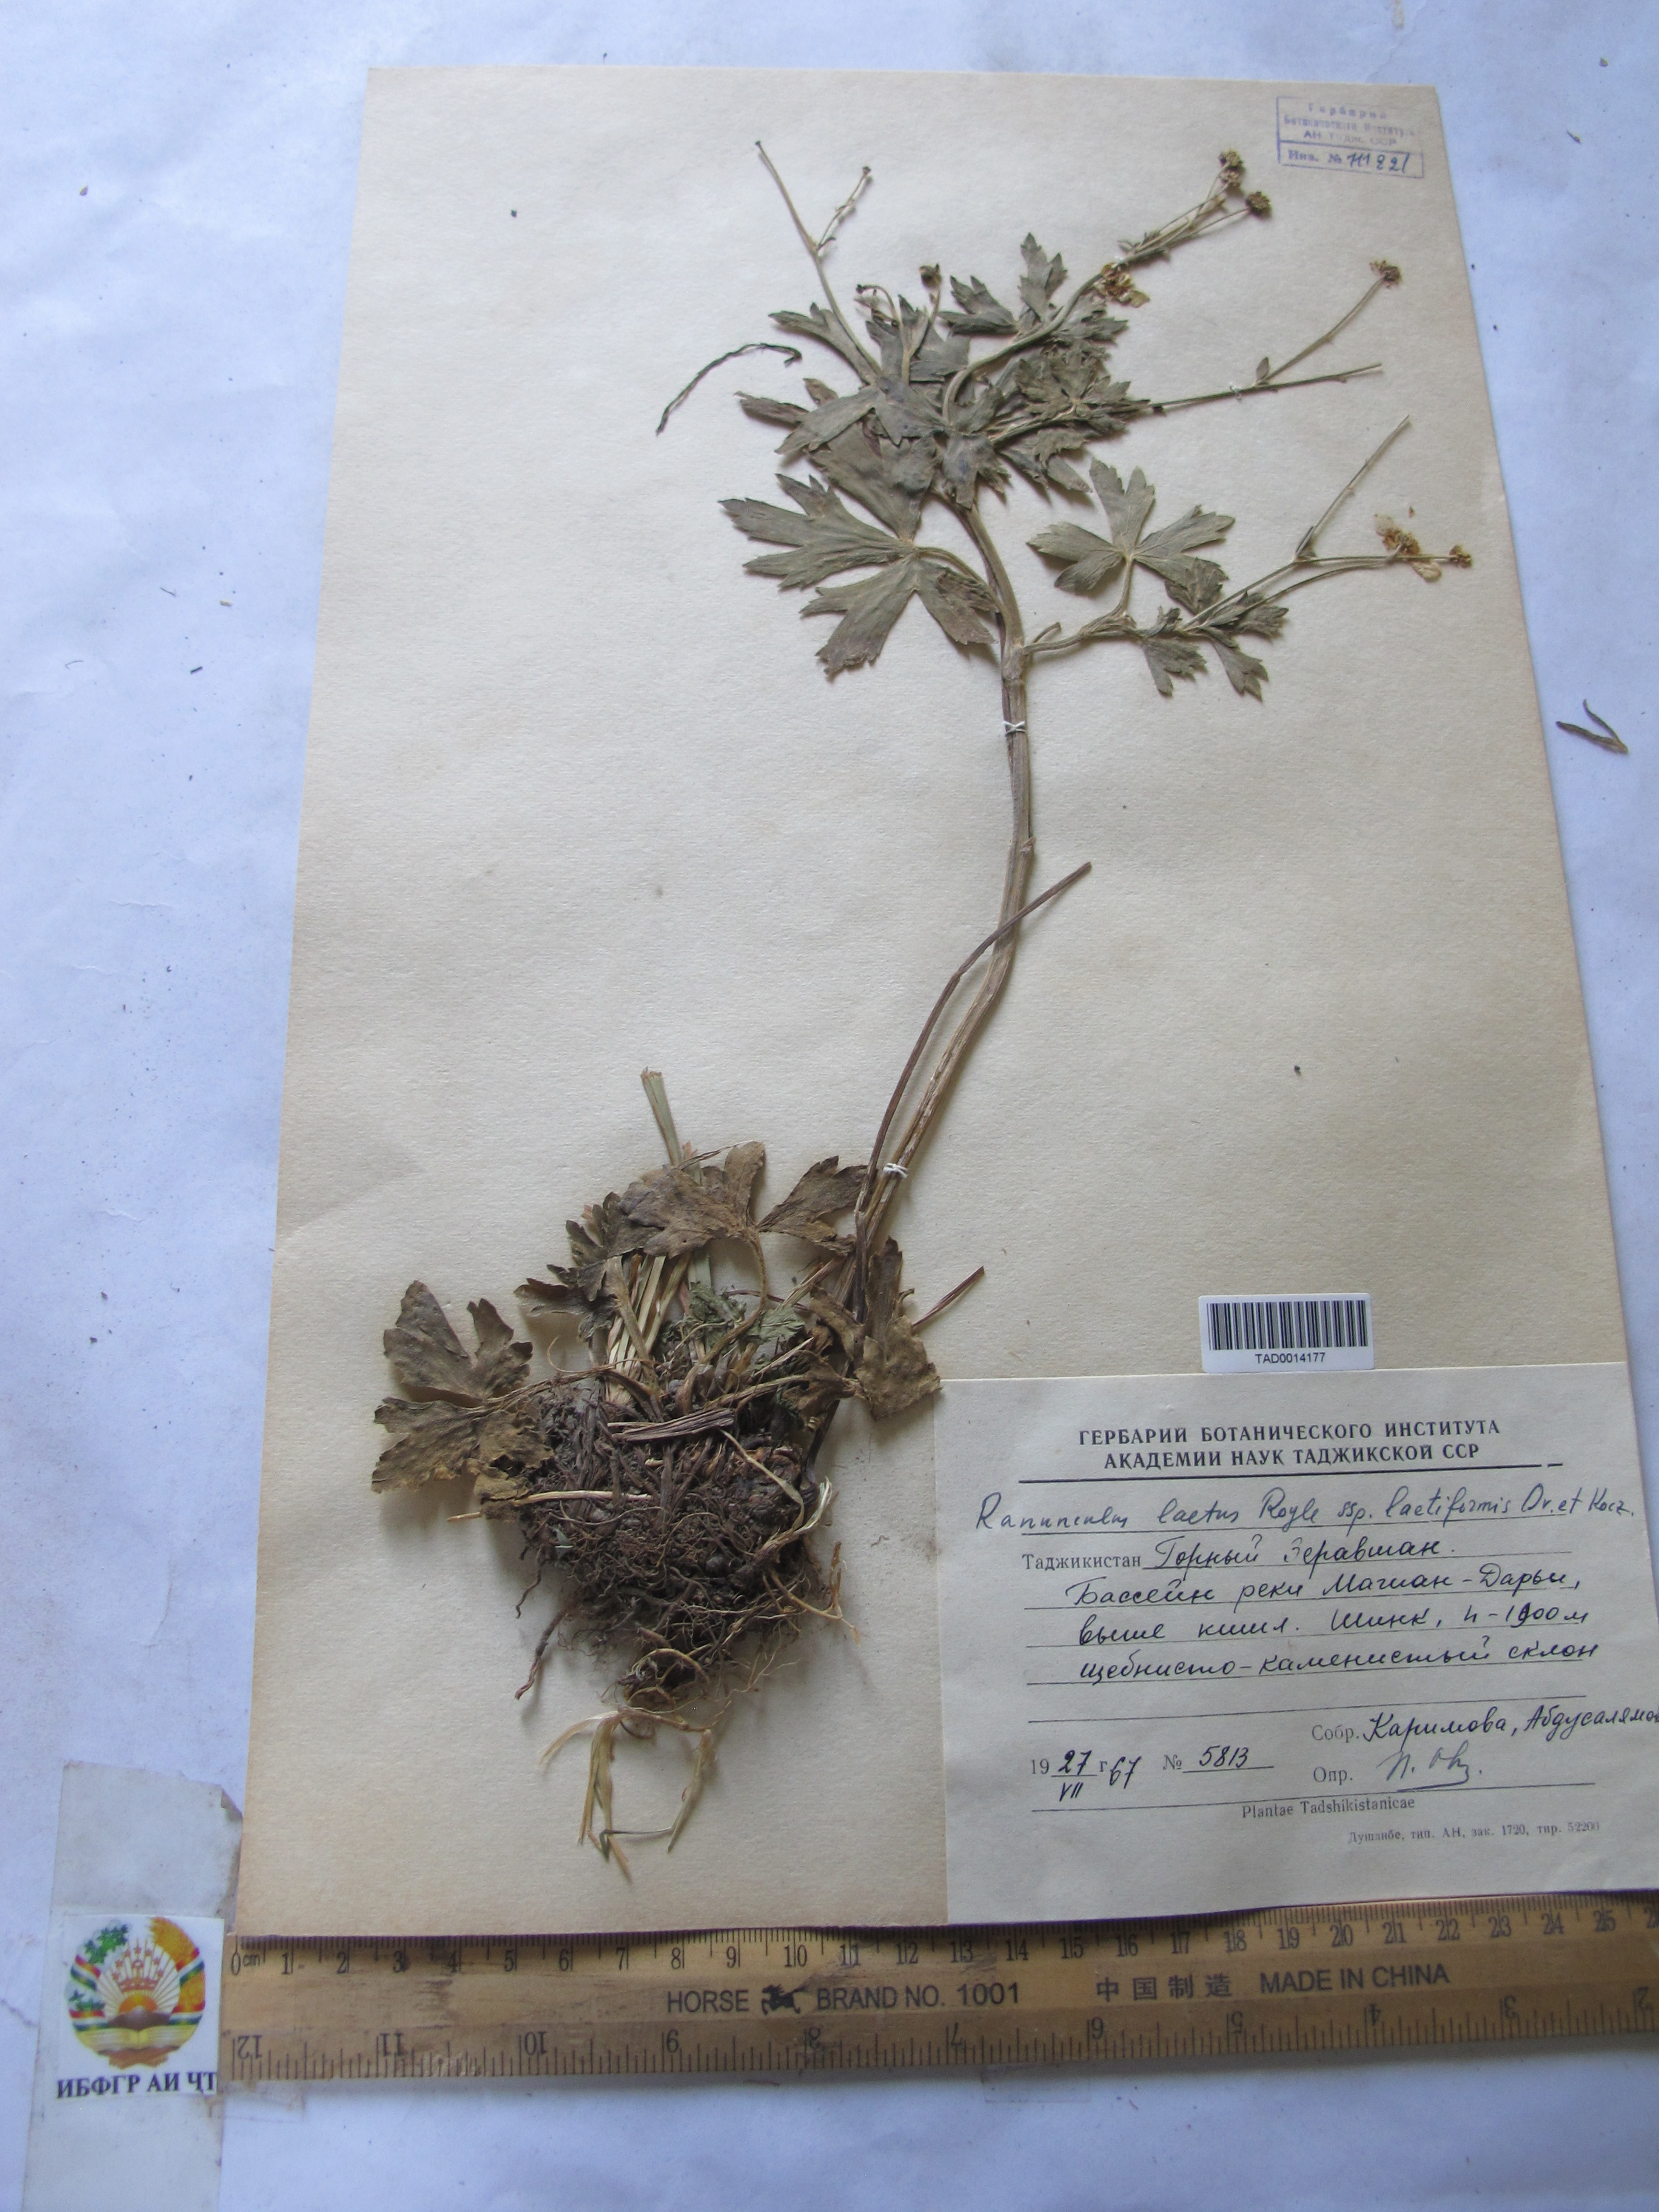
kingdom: Plantae
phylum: Tracheophyta
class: Magnoliopsida
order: Ranunculales
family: Ranunculaceae
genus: Ranunculus
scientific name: Ranunculus distans
